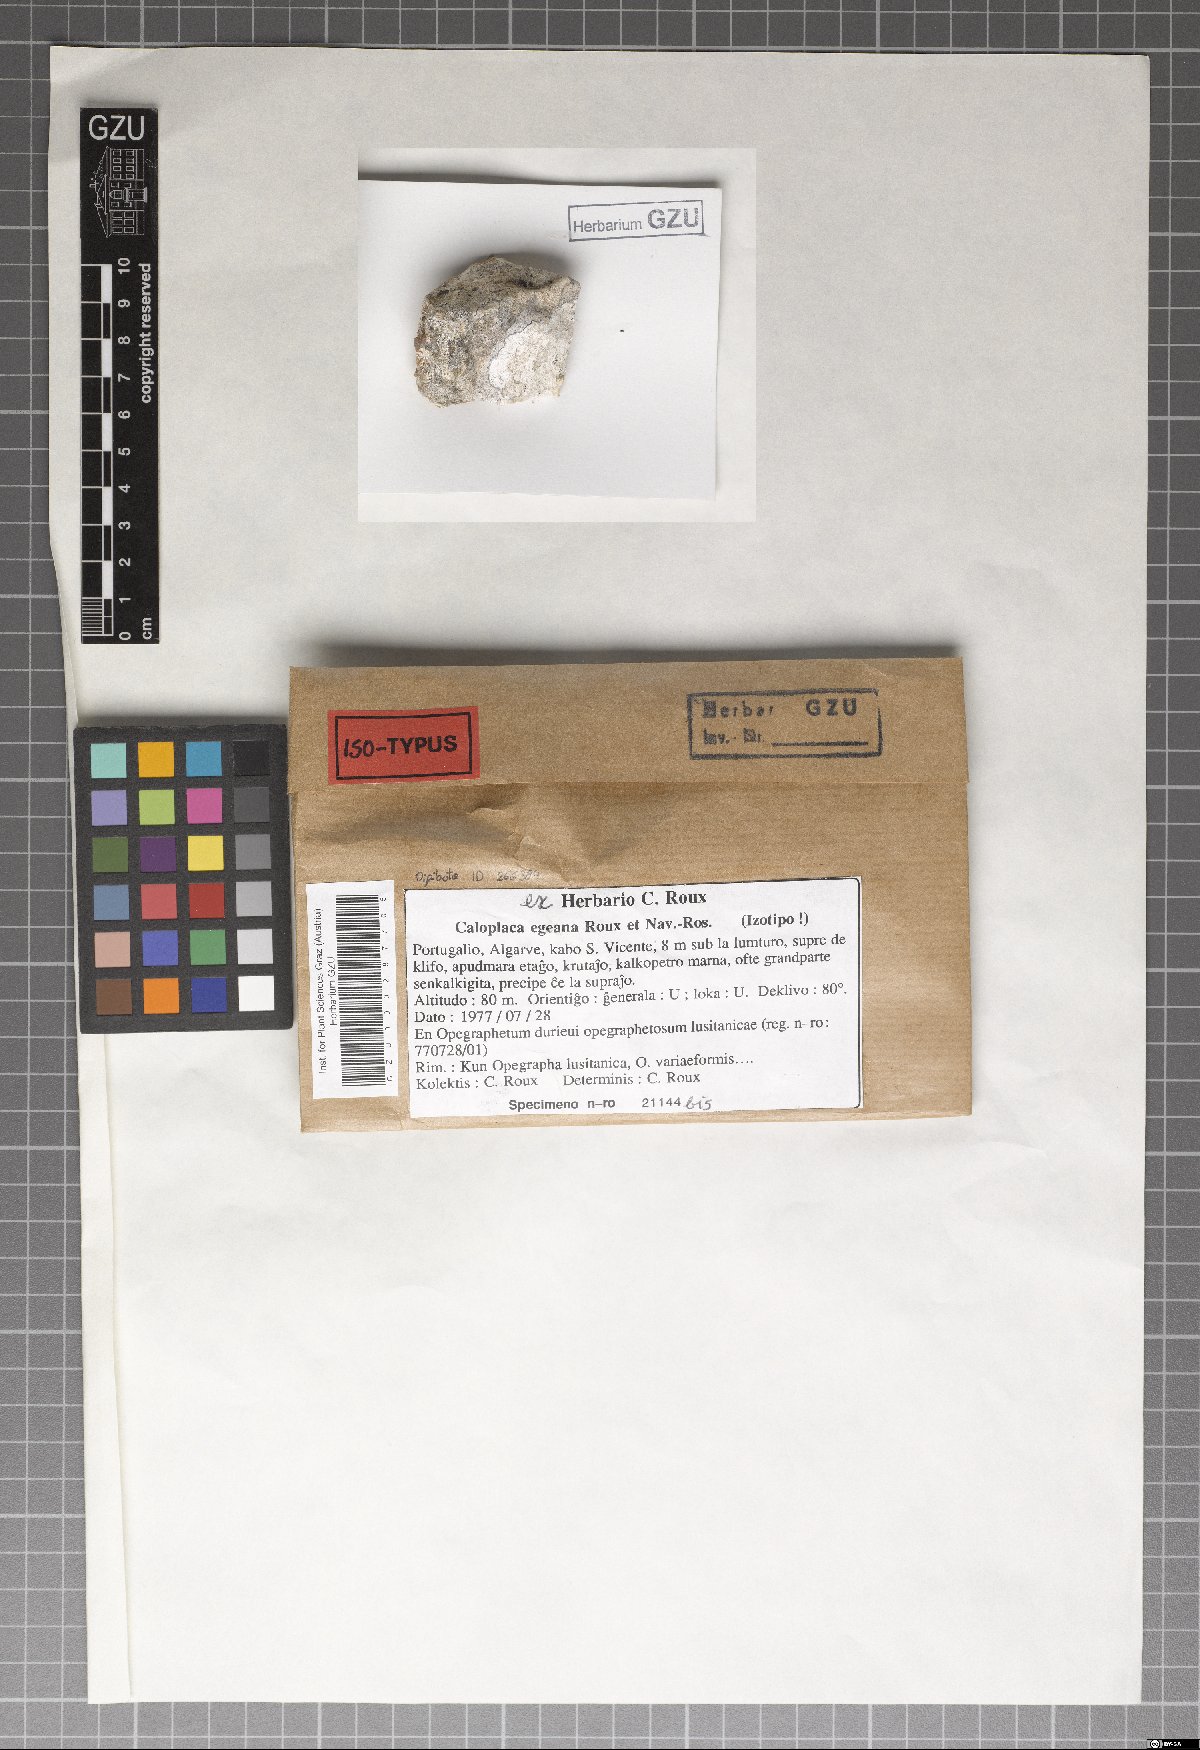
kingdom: Fungi
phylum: Ascomycota
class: Lecanoromycetes
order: Teloschistales
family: Teloschistaceae
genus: Caloplaca
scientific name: Caloplaca egeana
